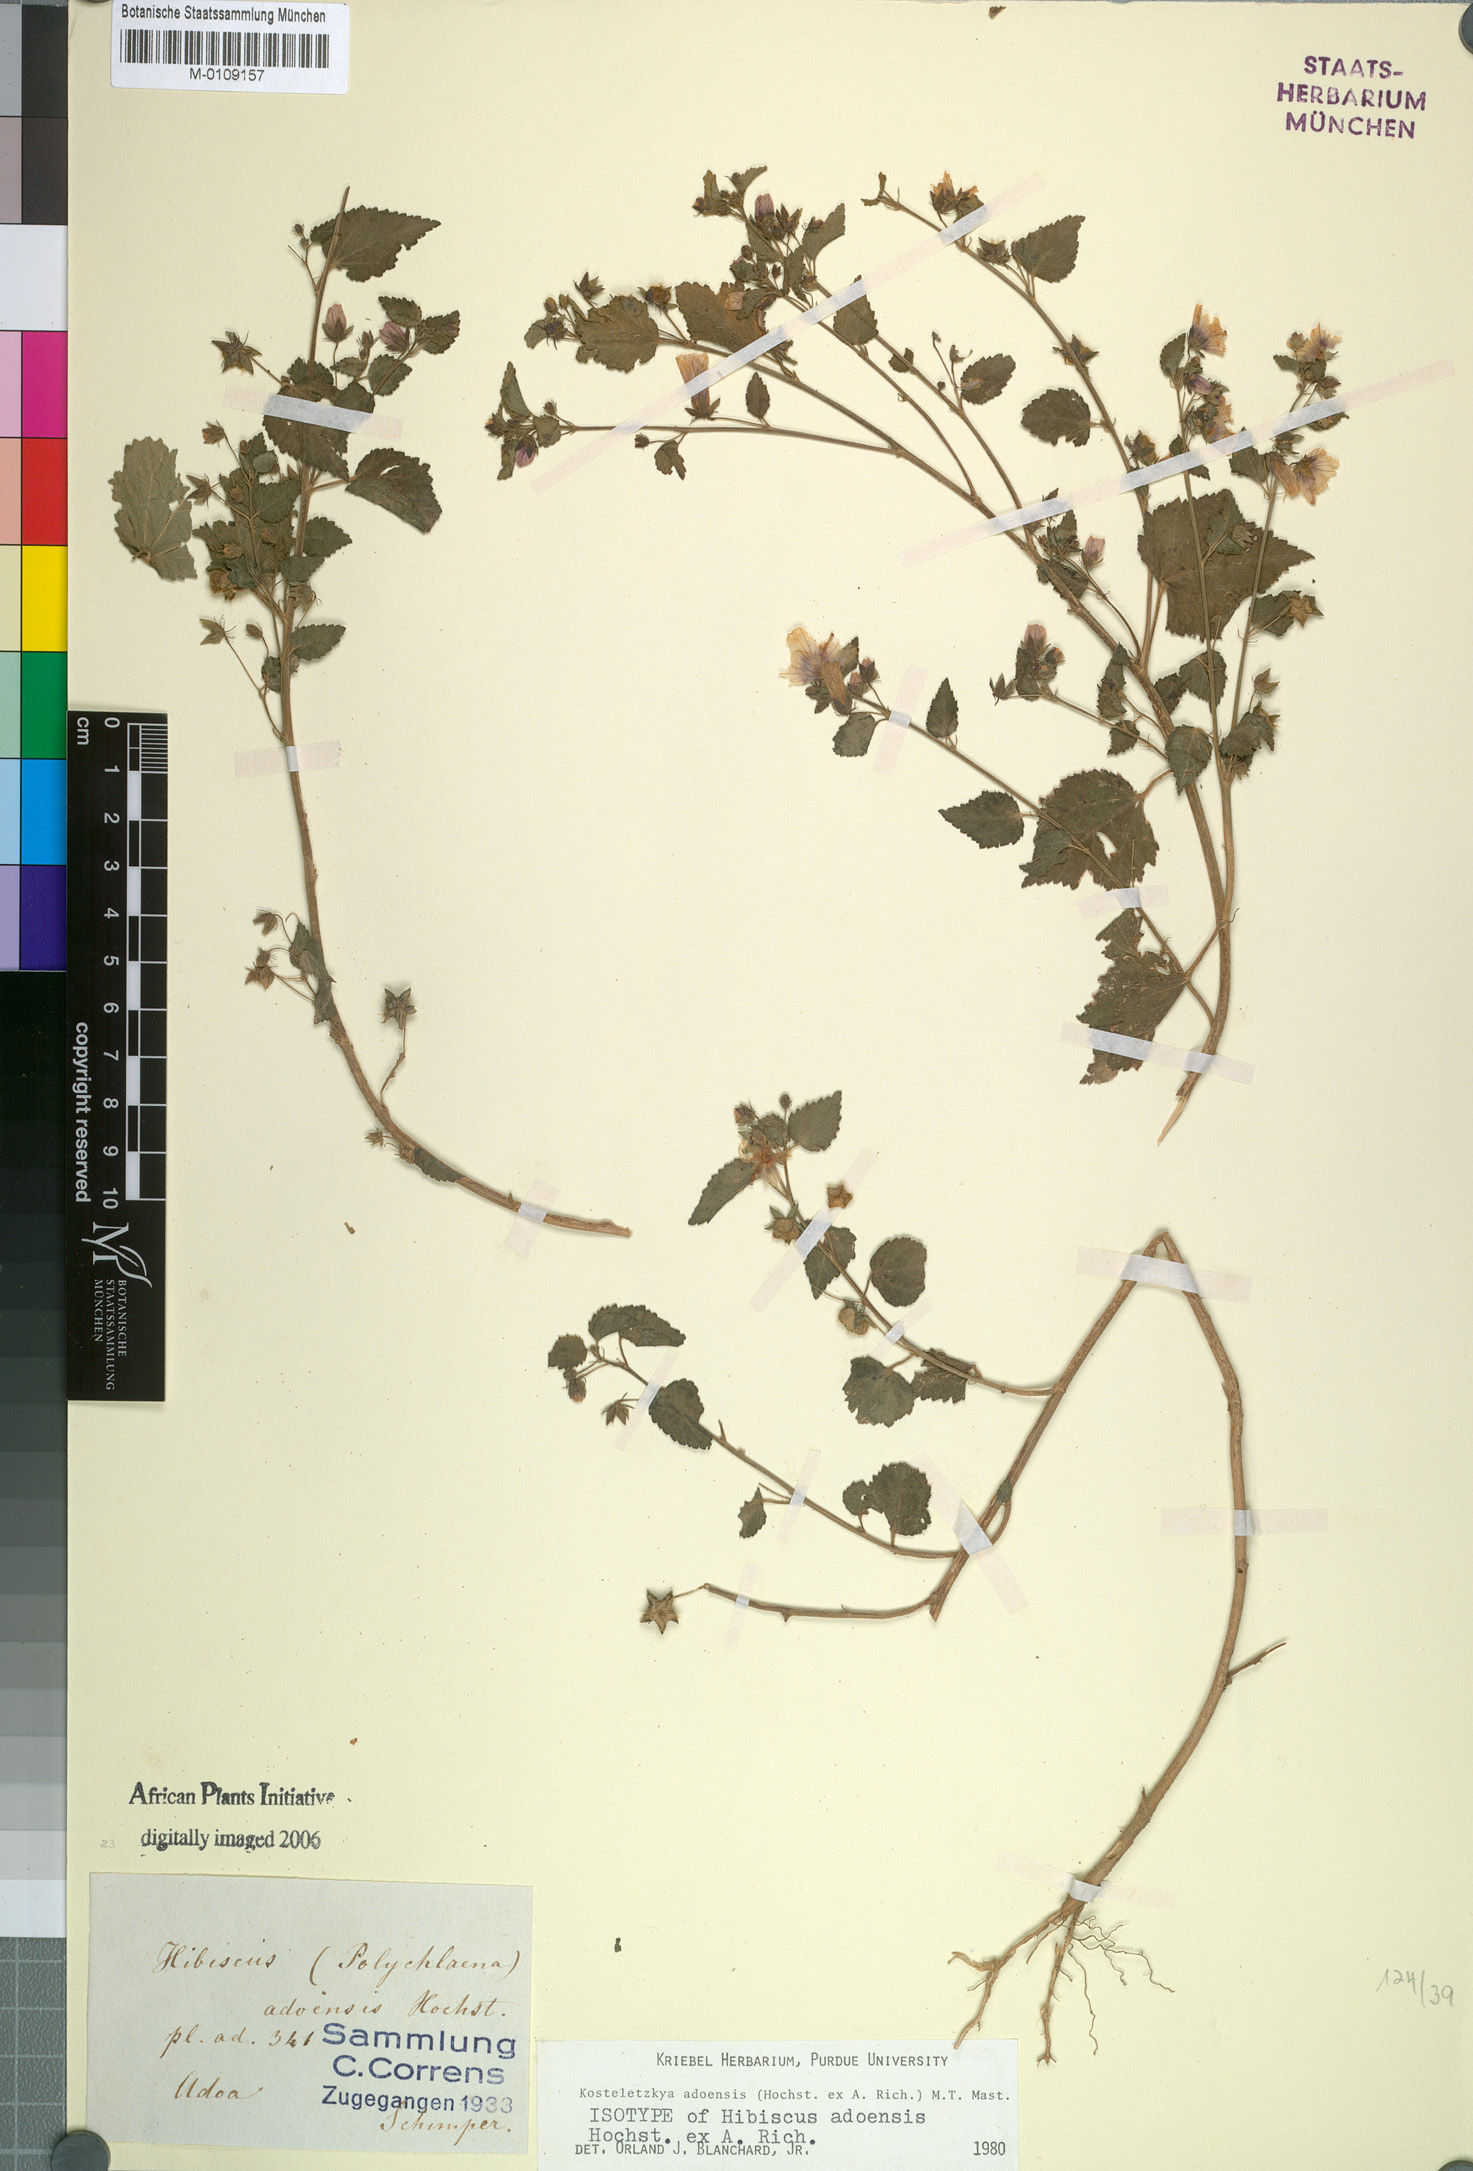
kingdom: Plantae
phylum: Tracheophyta
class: Magnoliopsida
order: Malvales
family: Malvaceae
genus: Kosteletzkya
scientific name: Kosteletzkya adoensis
